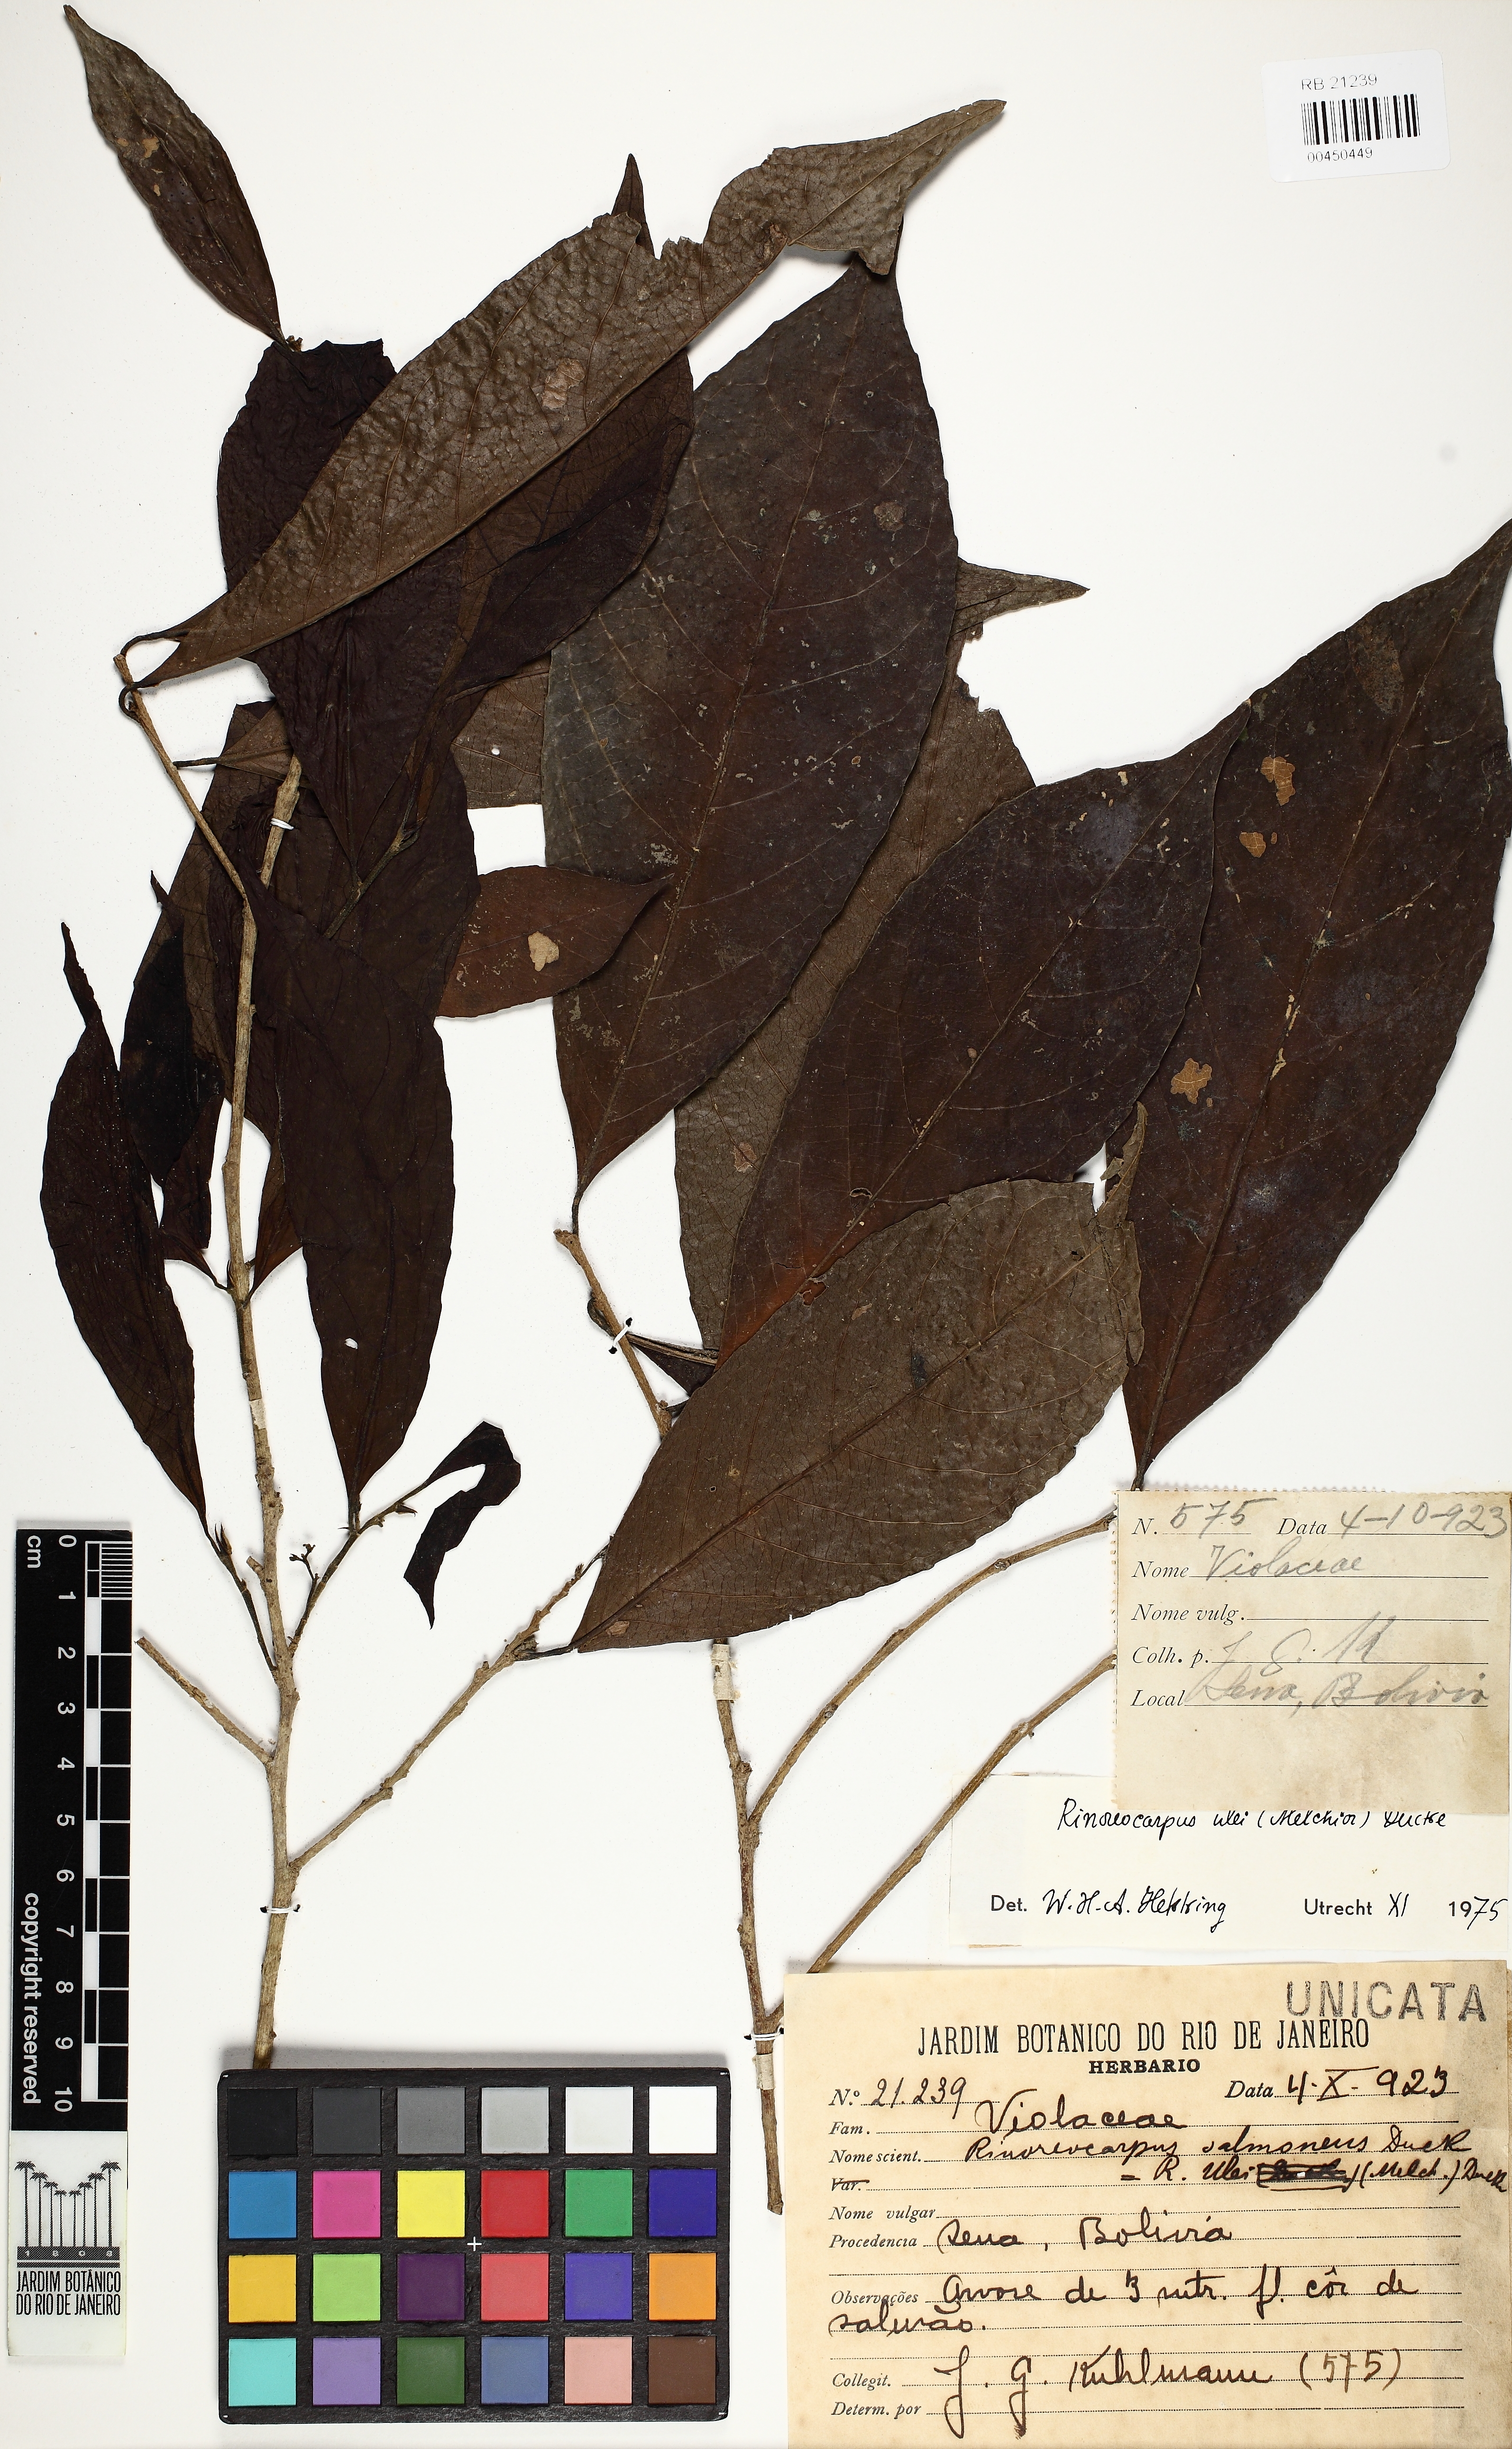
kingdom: Plantae
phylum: Tracheophyta
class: Magnoliopsida
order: Malpighiales
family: Violaceae
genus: Rinoreocarpus
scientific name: Rinoreocarpus ulei
